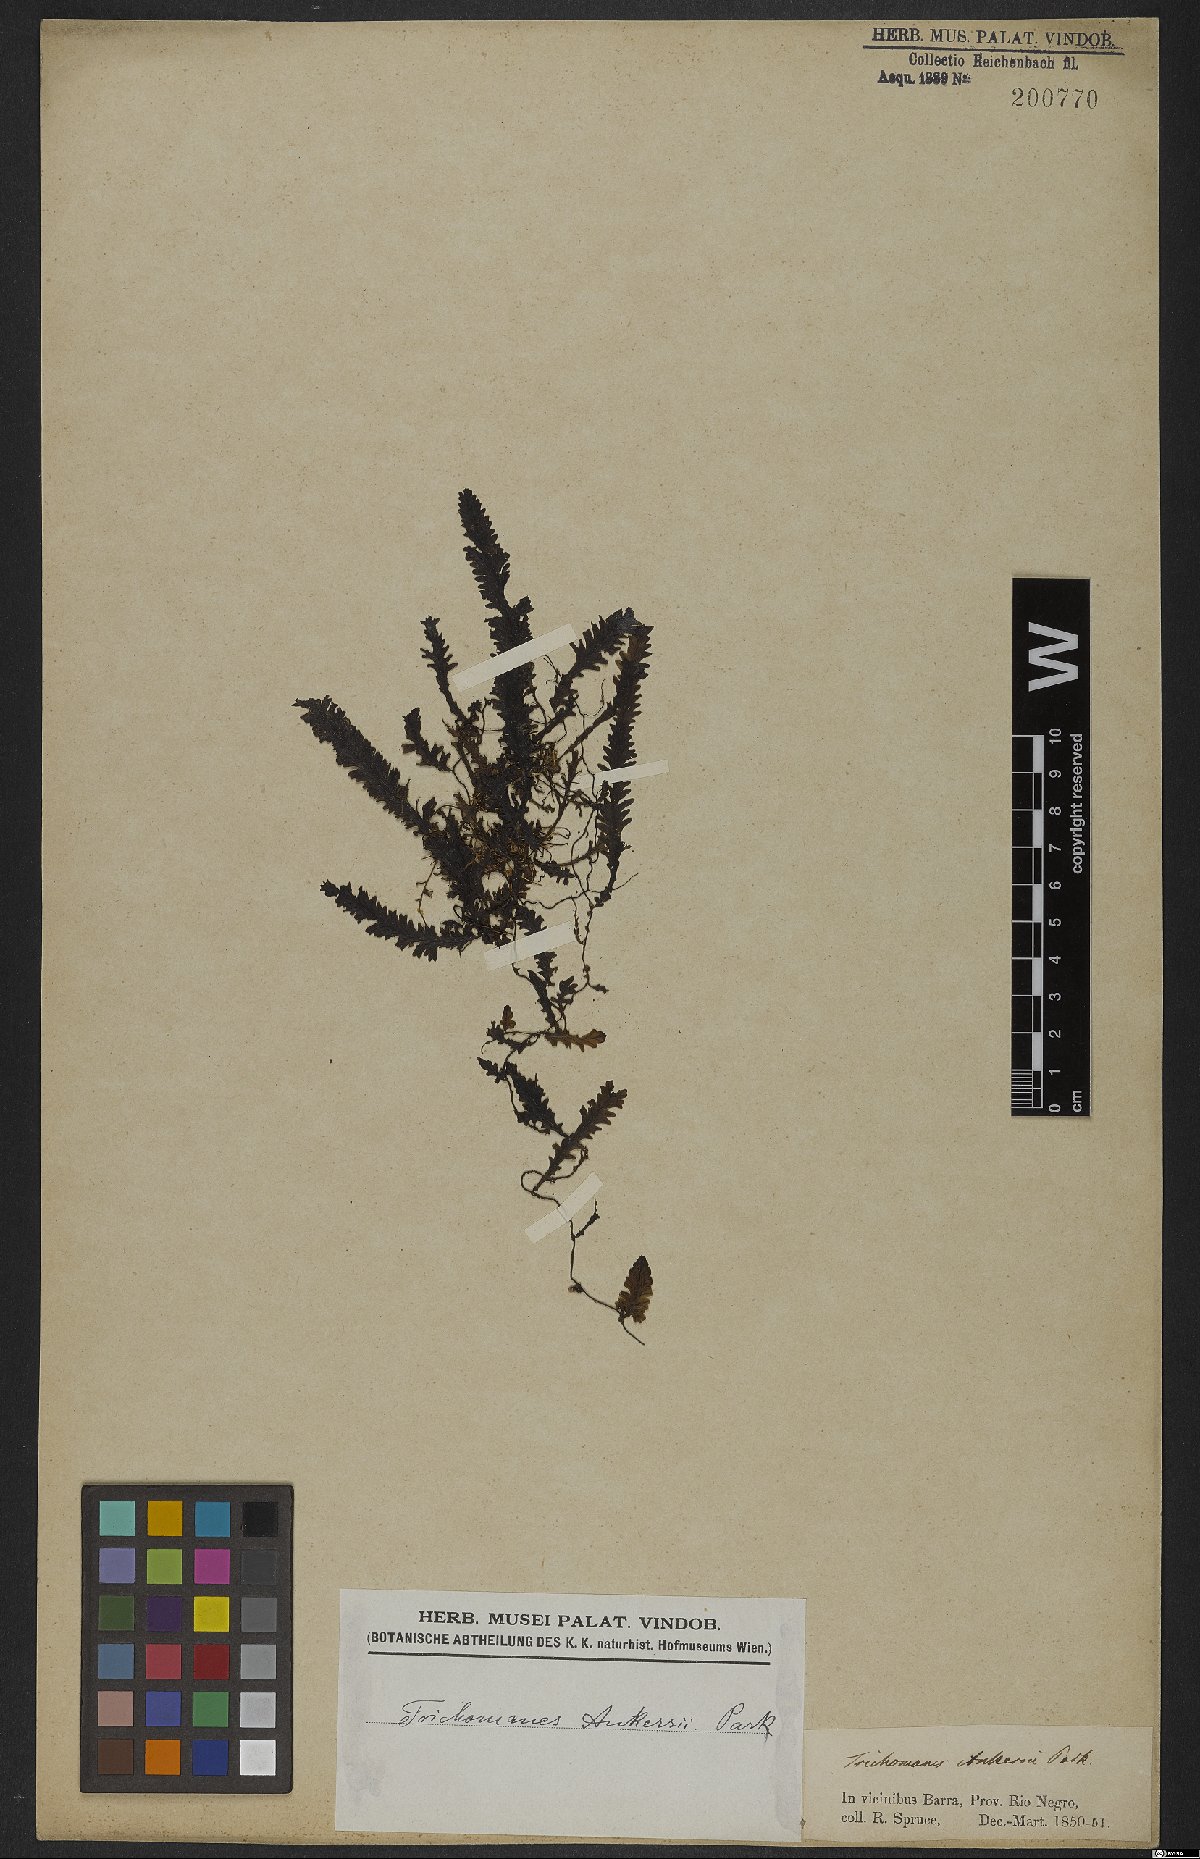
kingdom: Plantae
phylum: Tracheophyta
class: Polypodiopsida
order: Hymenophyllales
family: Hymenophyllaceae
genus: Trichomanes
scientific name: Trichomanes ankersii
